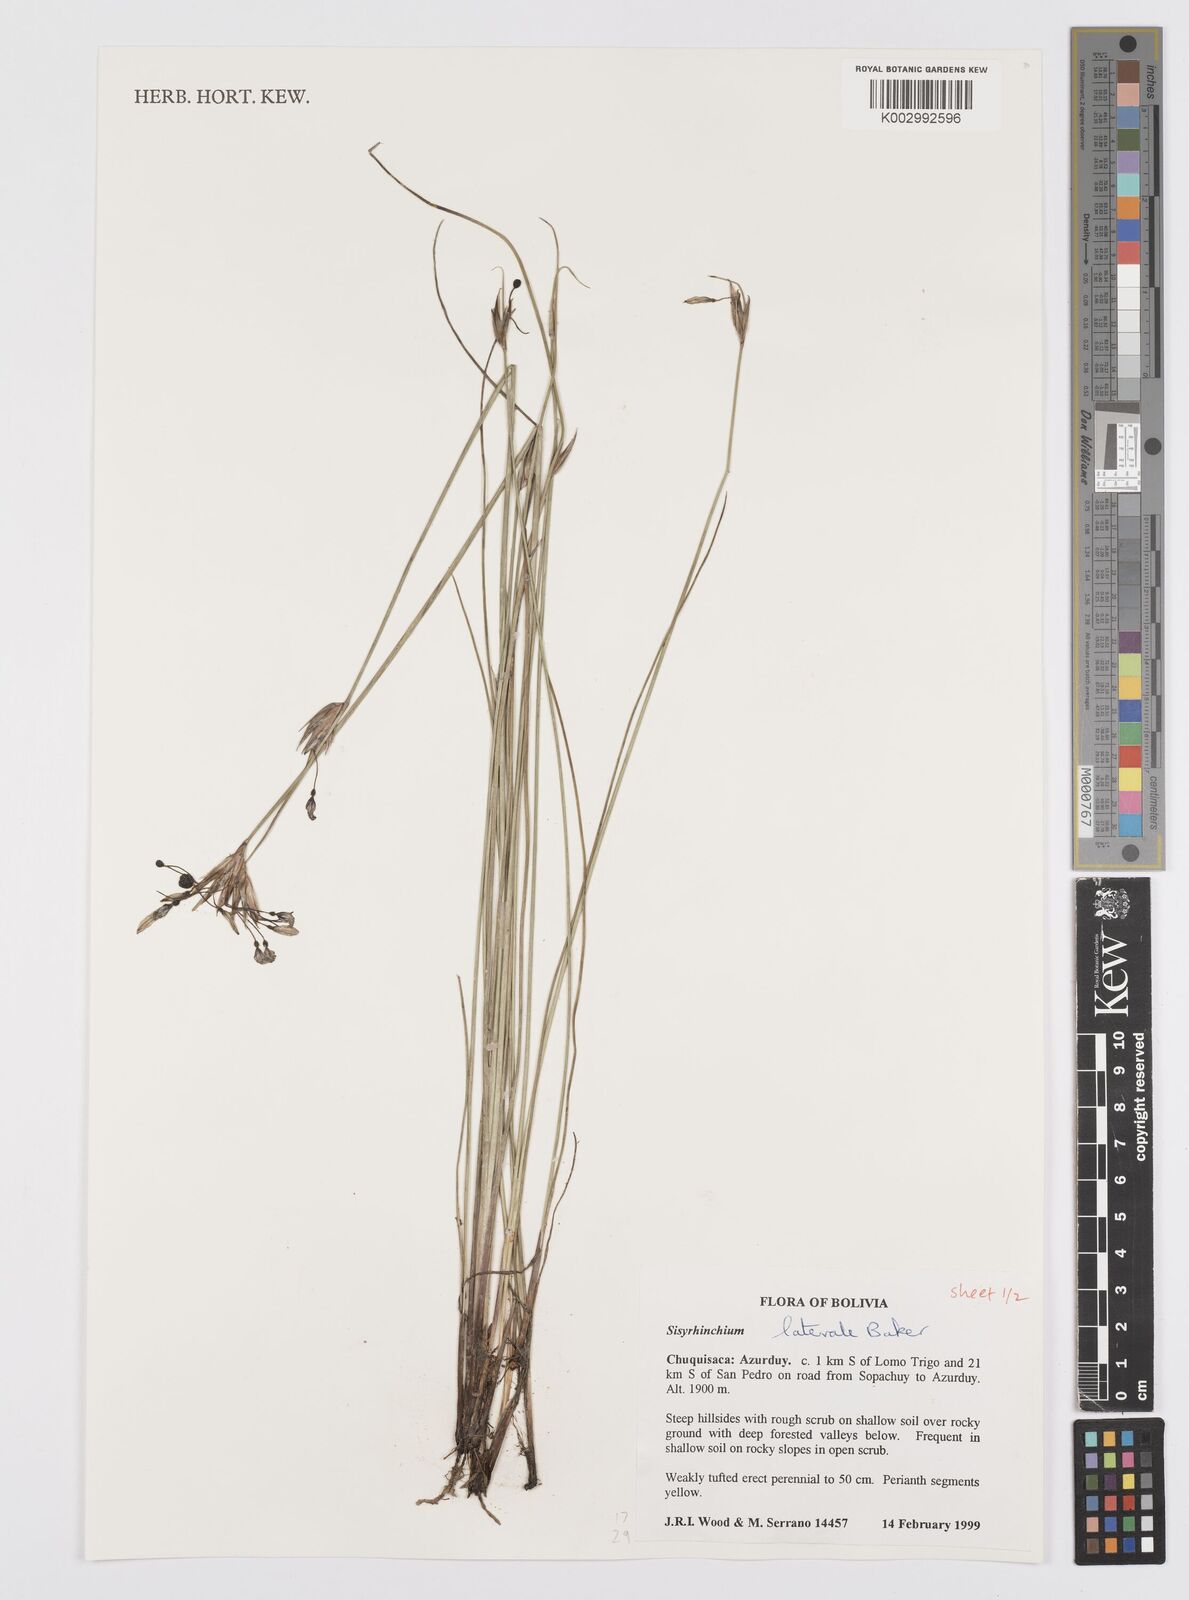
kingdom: Plantae
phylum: Tracheophyta
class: Liliopsida
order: Asparagales
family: Iridaceae
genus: Sisyrinchium
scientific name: Sisyrinchium laterale
